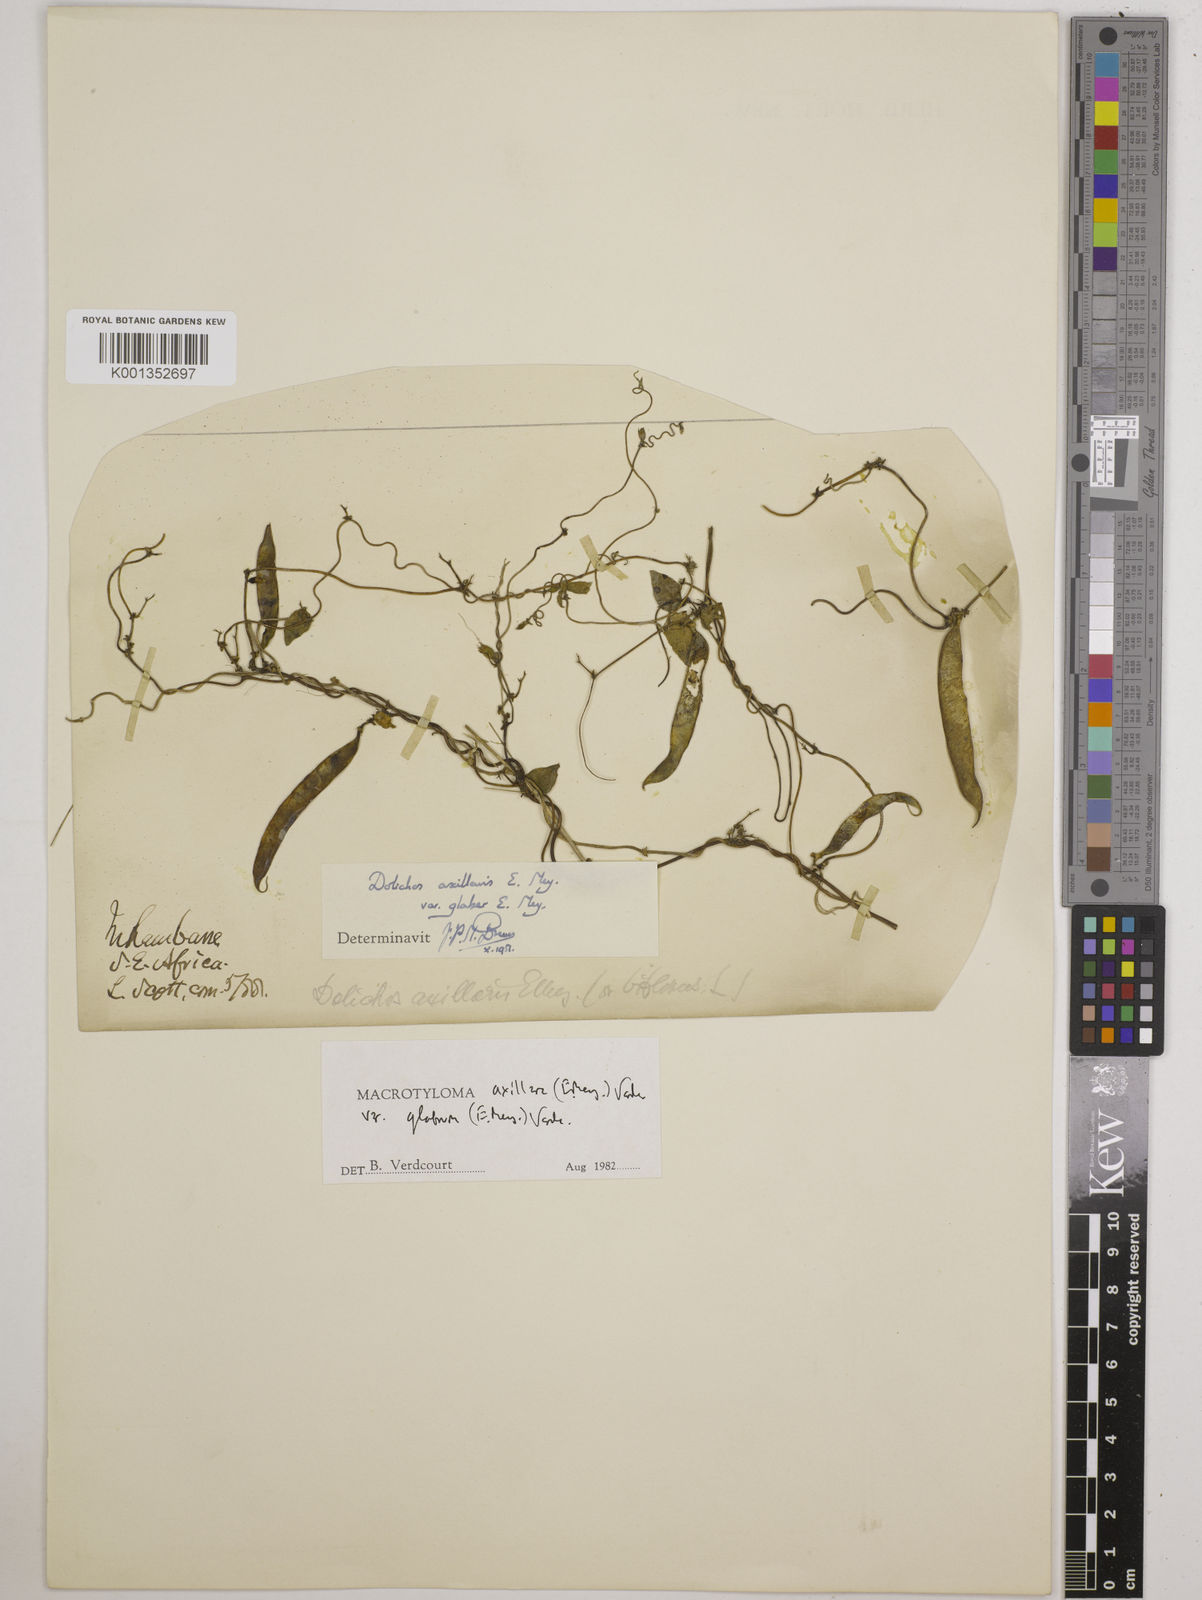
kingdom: Plantae
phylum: Tracheophyta
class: Magnoliopsida
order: Fabales
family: Fabaceae
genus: Macrotyloma
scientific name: Macrotyloma
